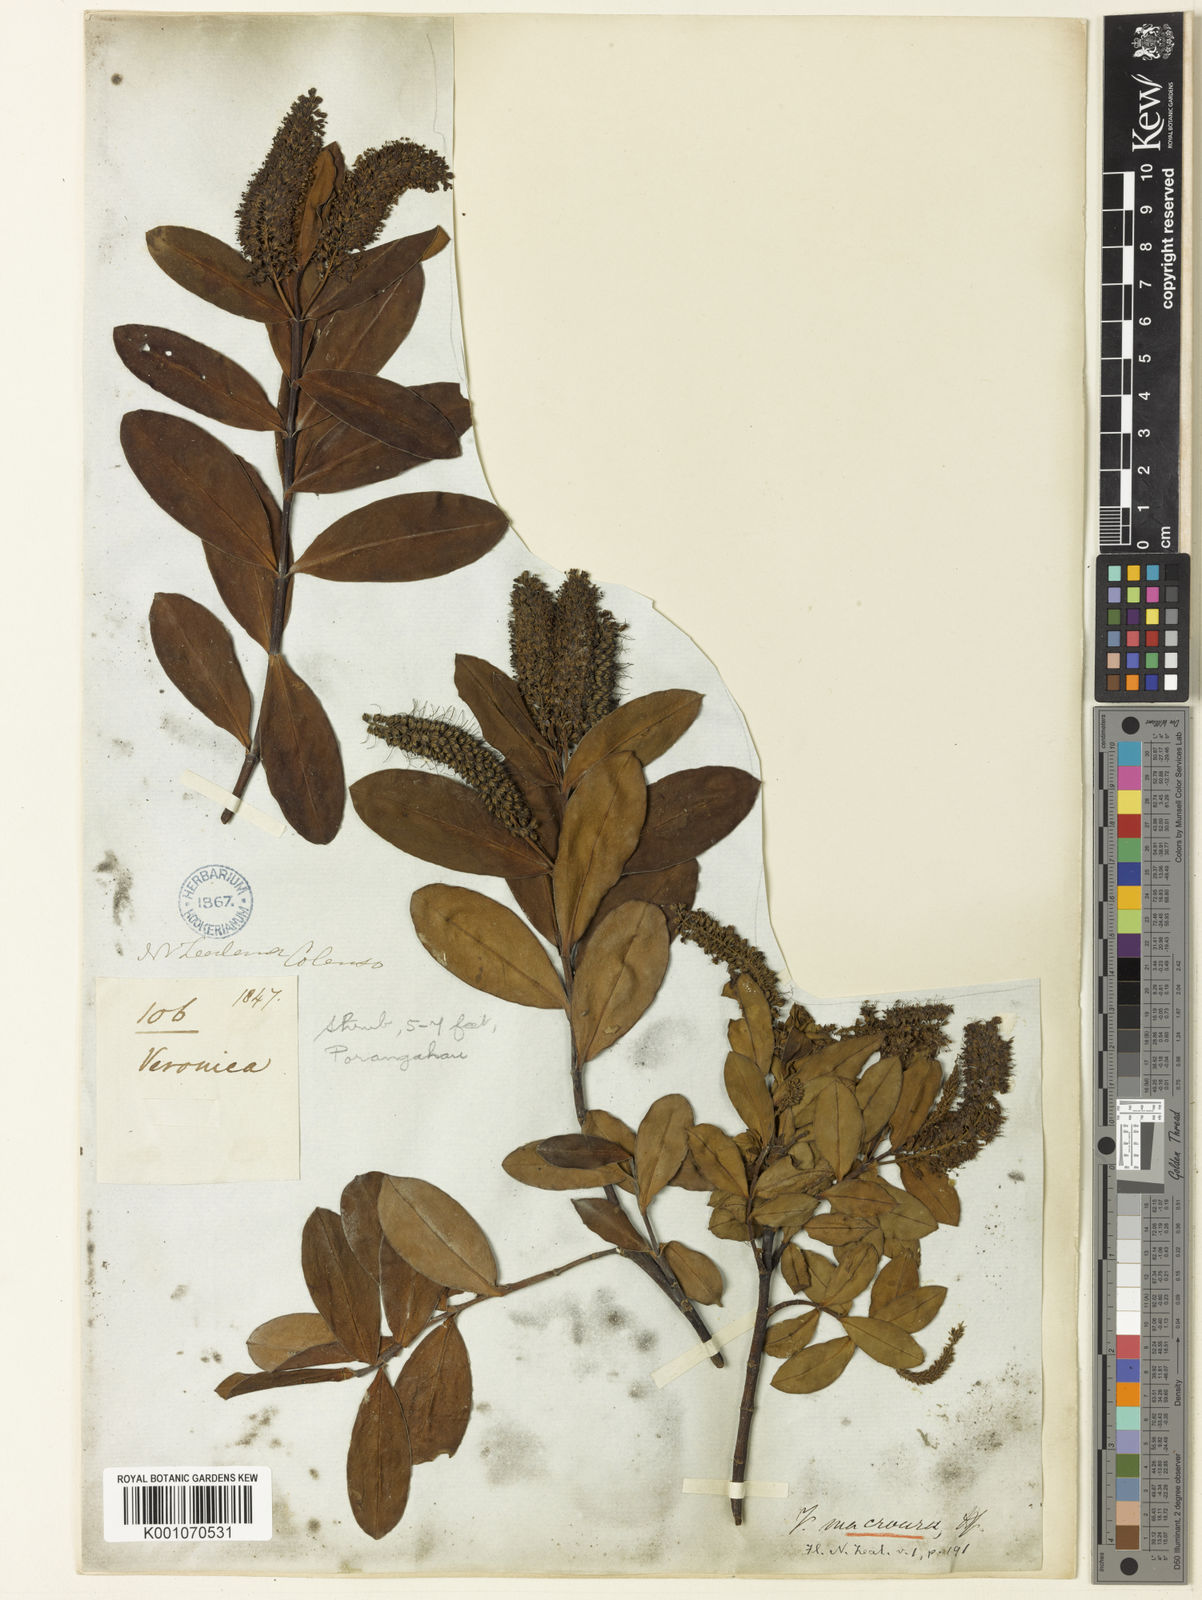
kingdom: Plantae
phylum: Tracheophyta
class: Magnoliopsida
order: Lamiales
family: Plantaginaceae
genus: Veronica
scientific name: Veronica
